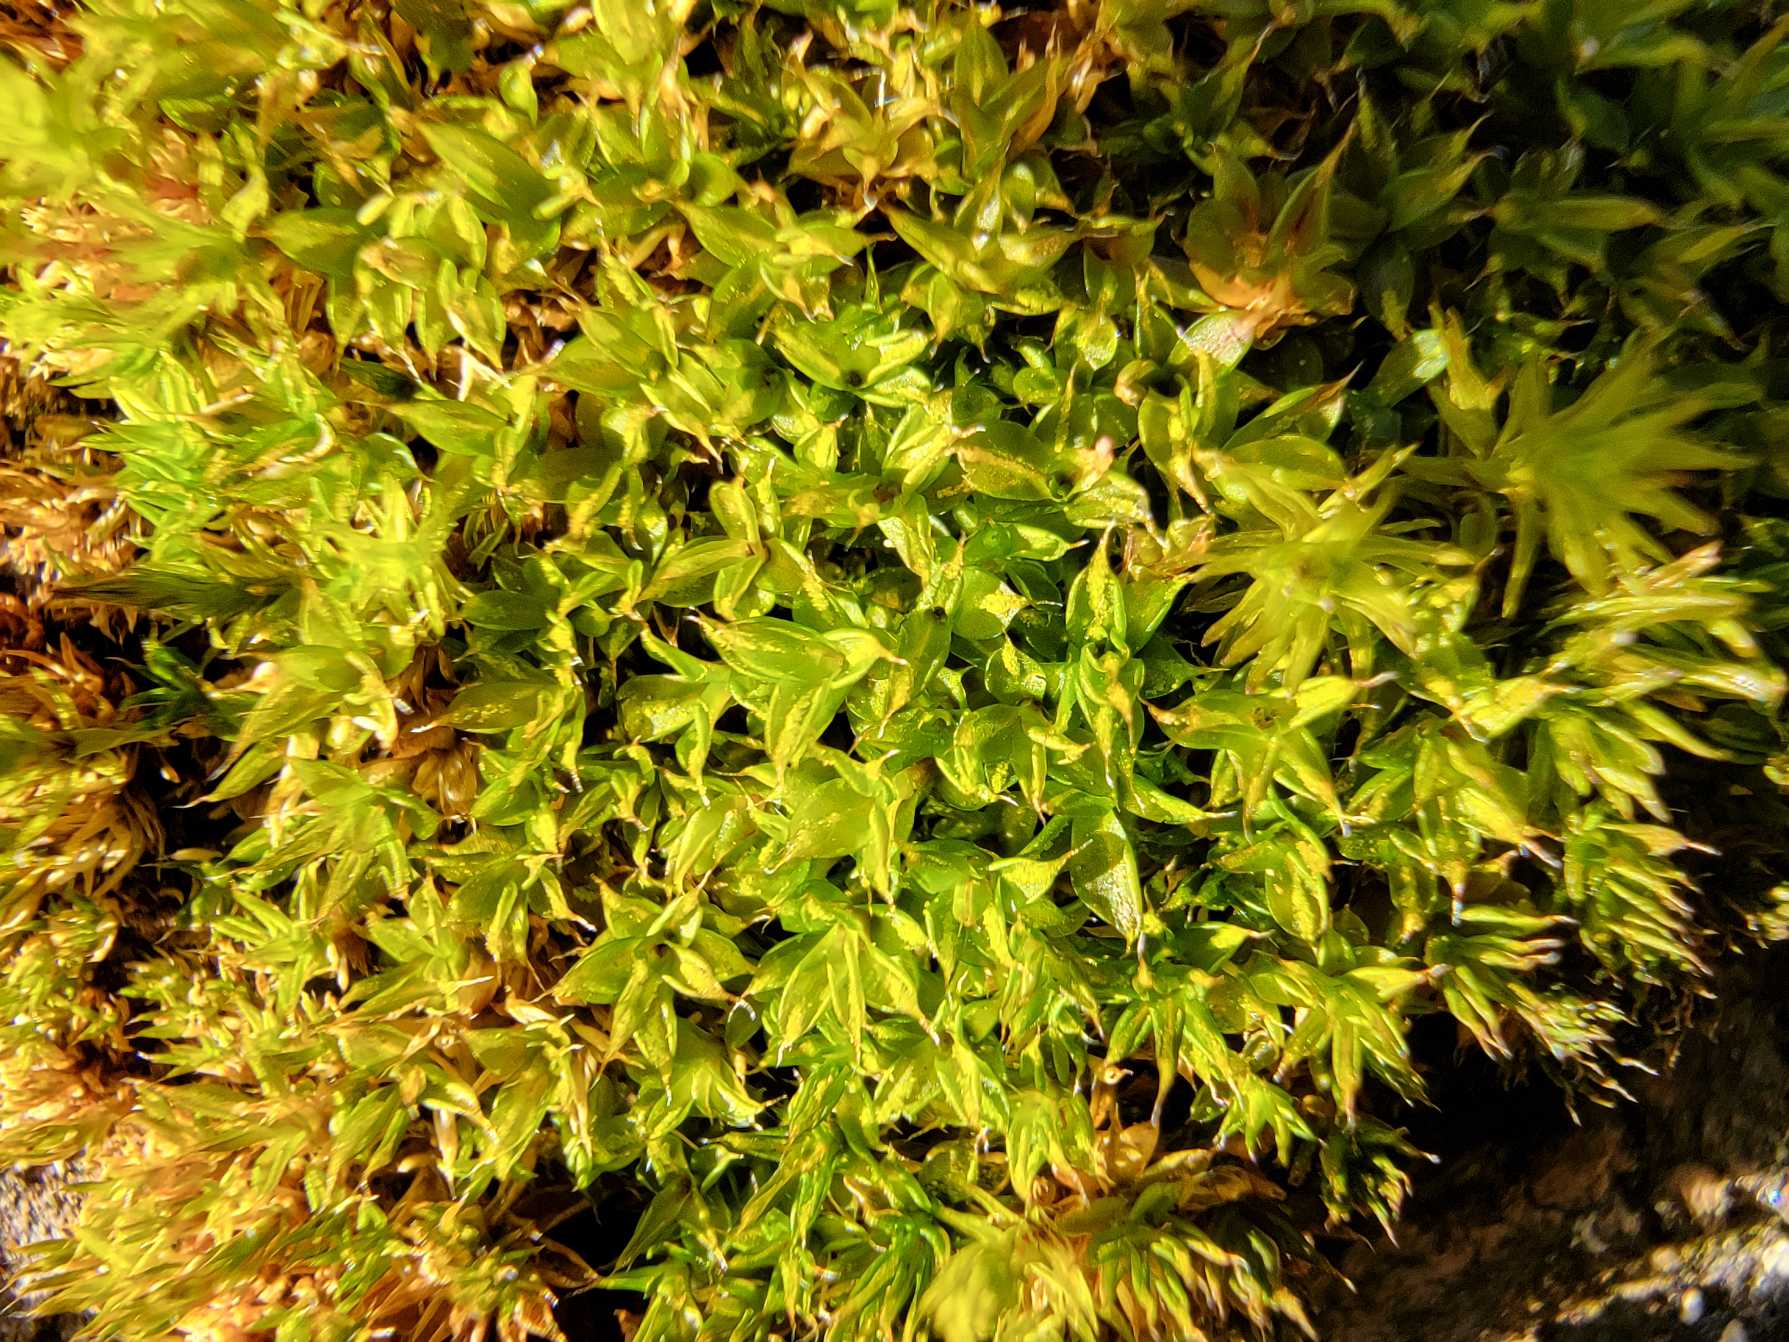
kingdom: Plantae
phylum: Bryophyta
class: Bryopsida
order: Pottiales
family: Pottiaceae
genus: Syntrichia
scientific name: Syntrichia papillosa
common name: Bark-hårstjerne
